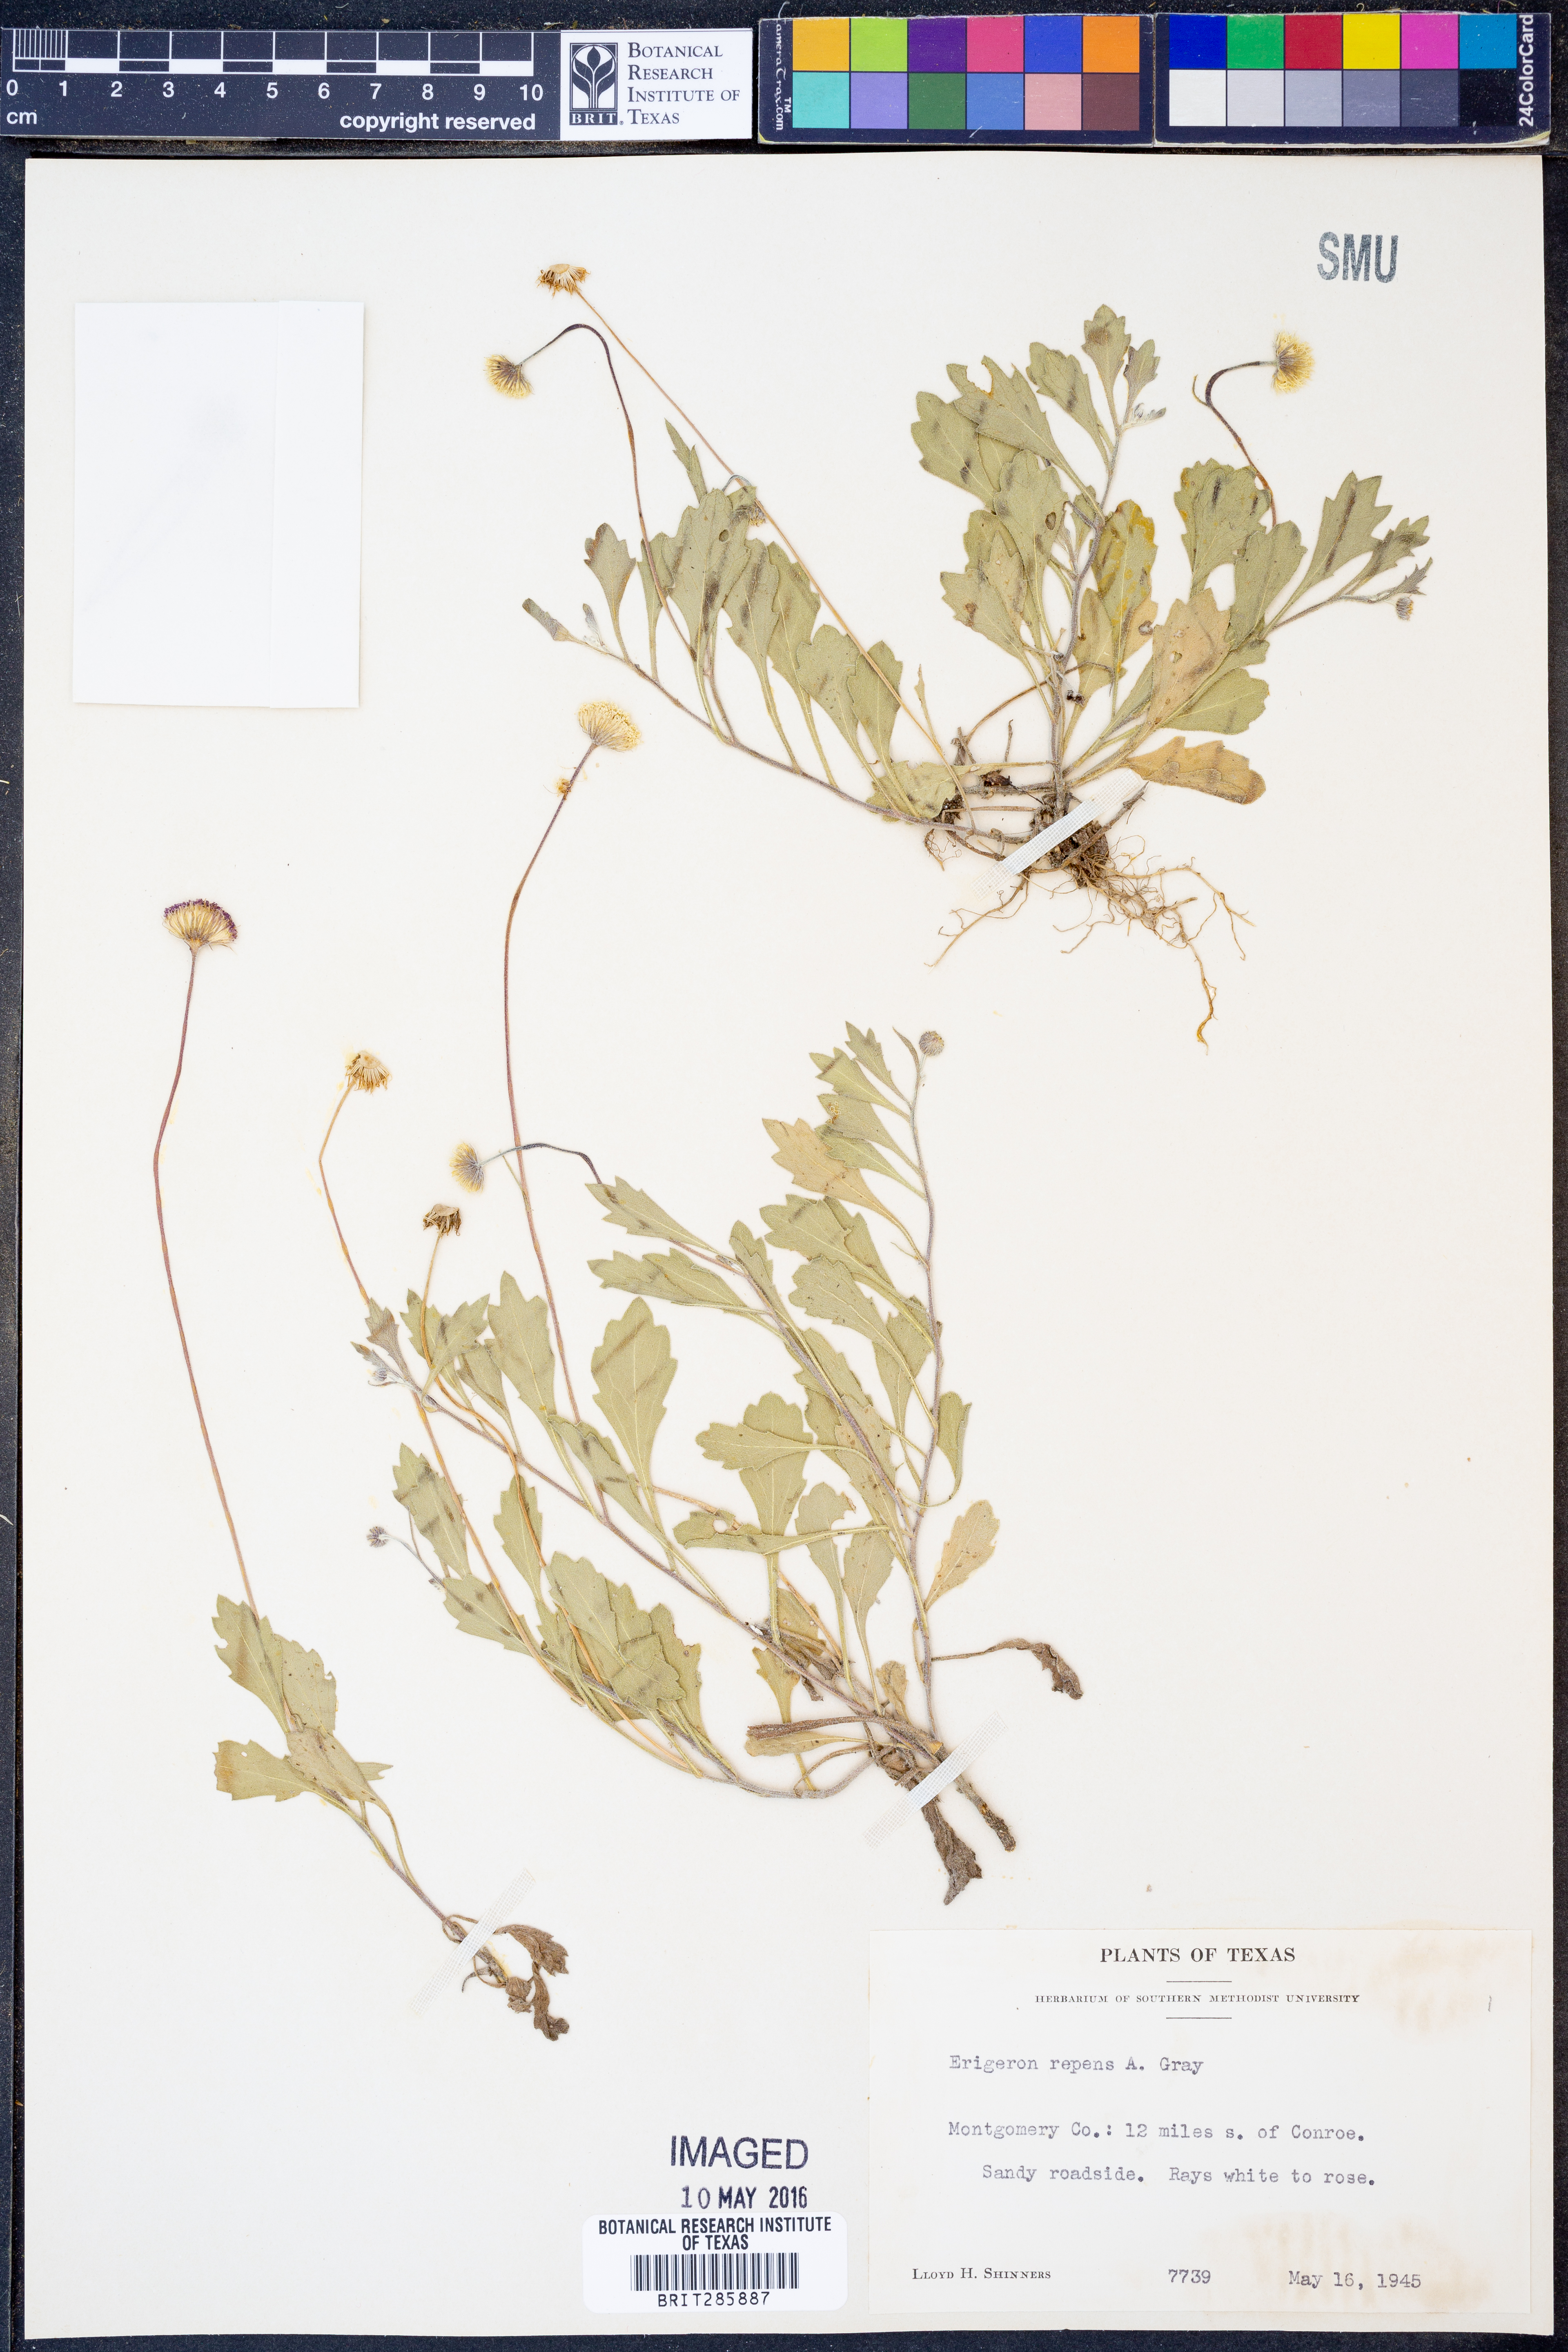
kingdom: Plantae
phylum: Tracheophyta
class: Magnoliopsida
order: Asterales
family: Asteraceae
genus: Erigeron
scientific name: Erigeron glacialis
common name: Subalpine fleabane
